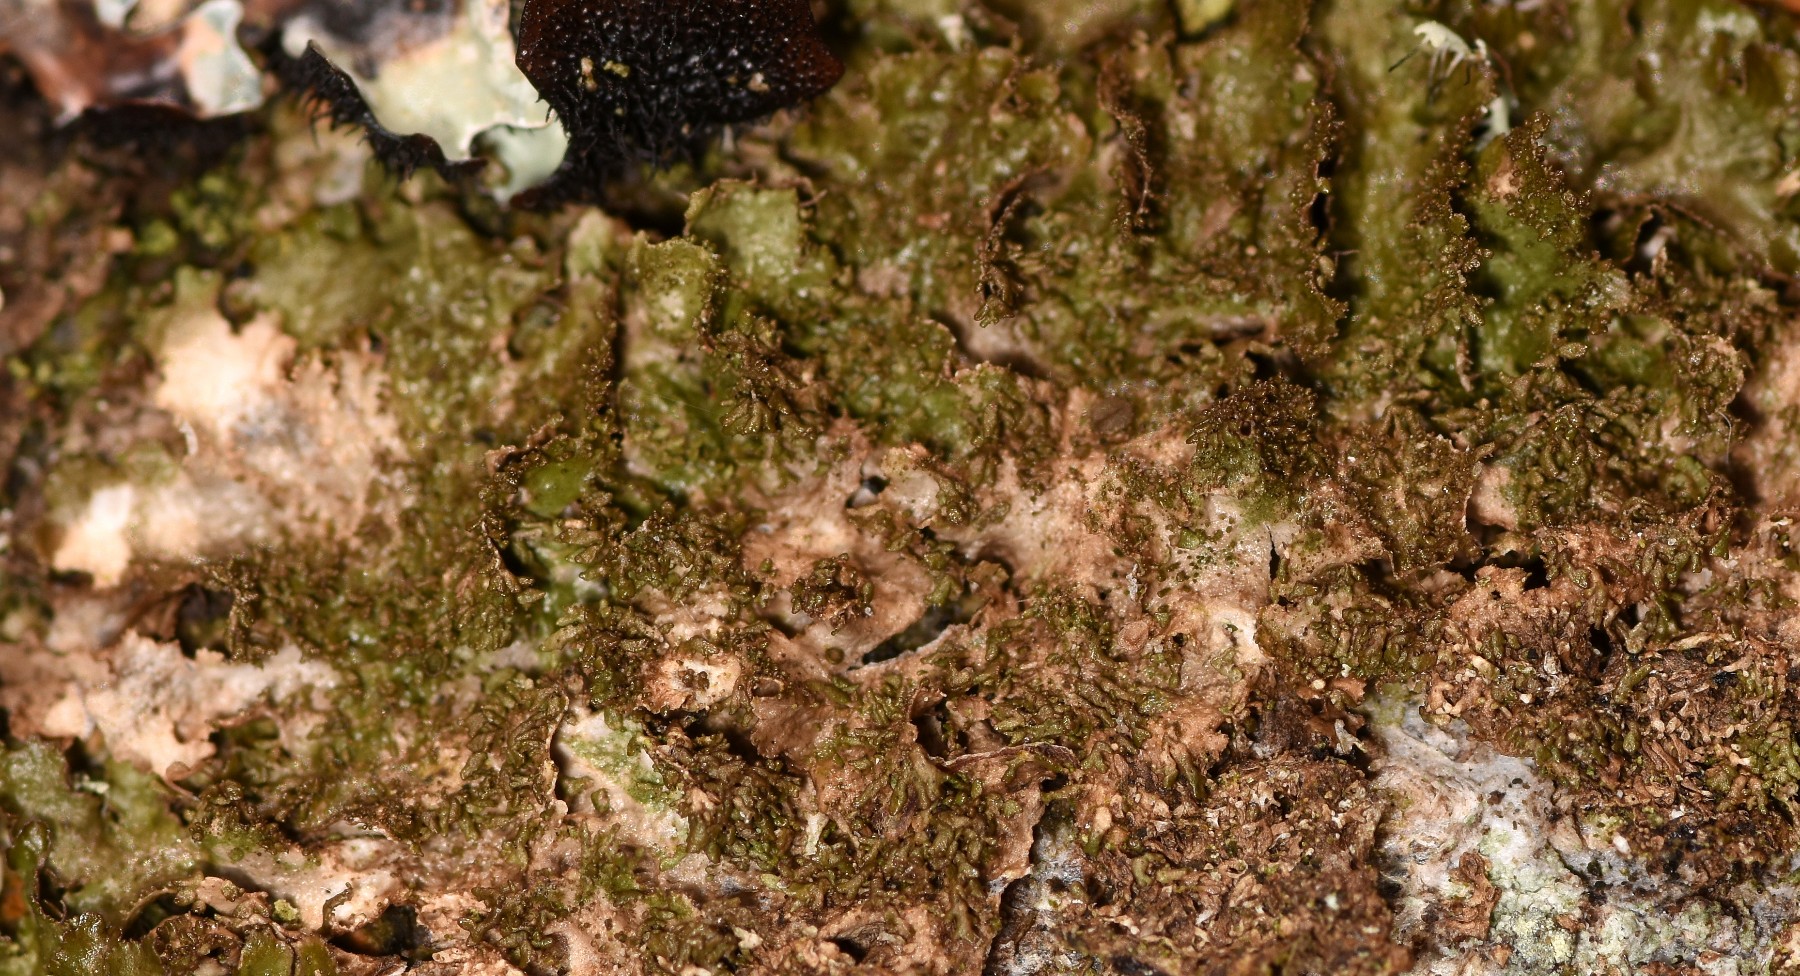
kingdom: Fungi
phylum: Ascomycota
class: Lecanoromycetes
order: Lecanorales
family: Parmeliaceae
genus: Melanohalea
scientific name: Melanohalea exasperatula
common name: kølle-skållav
